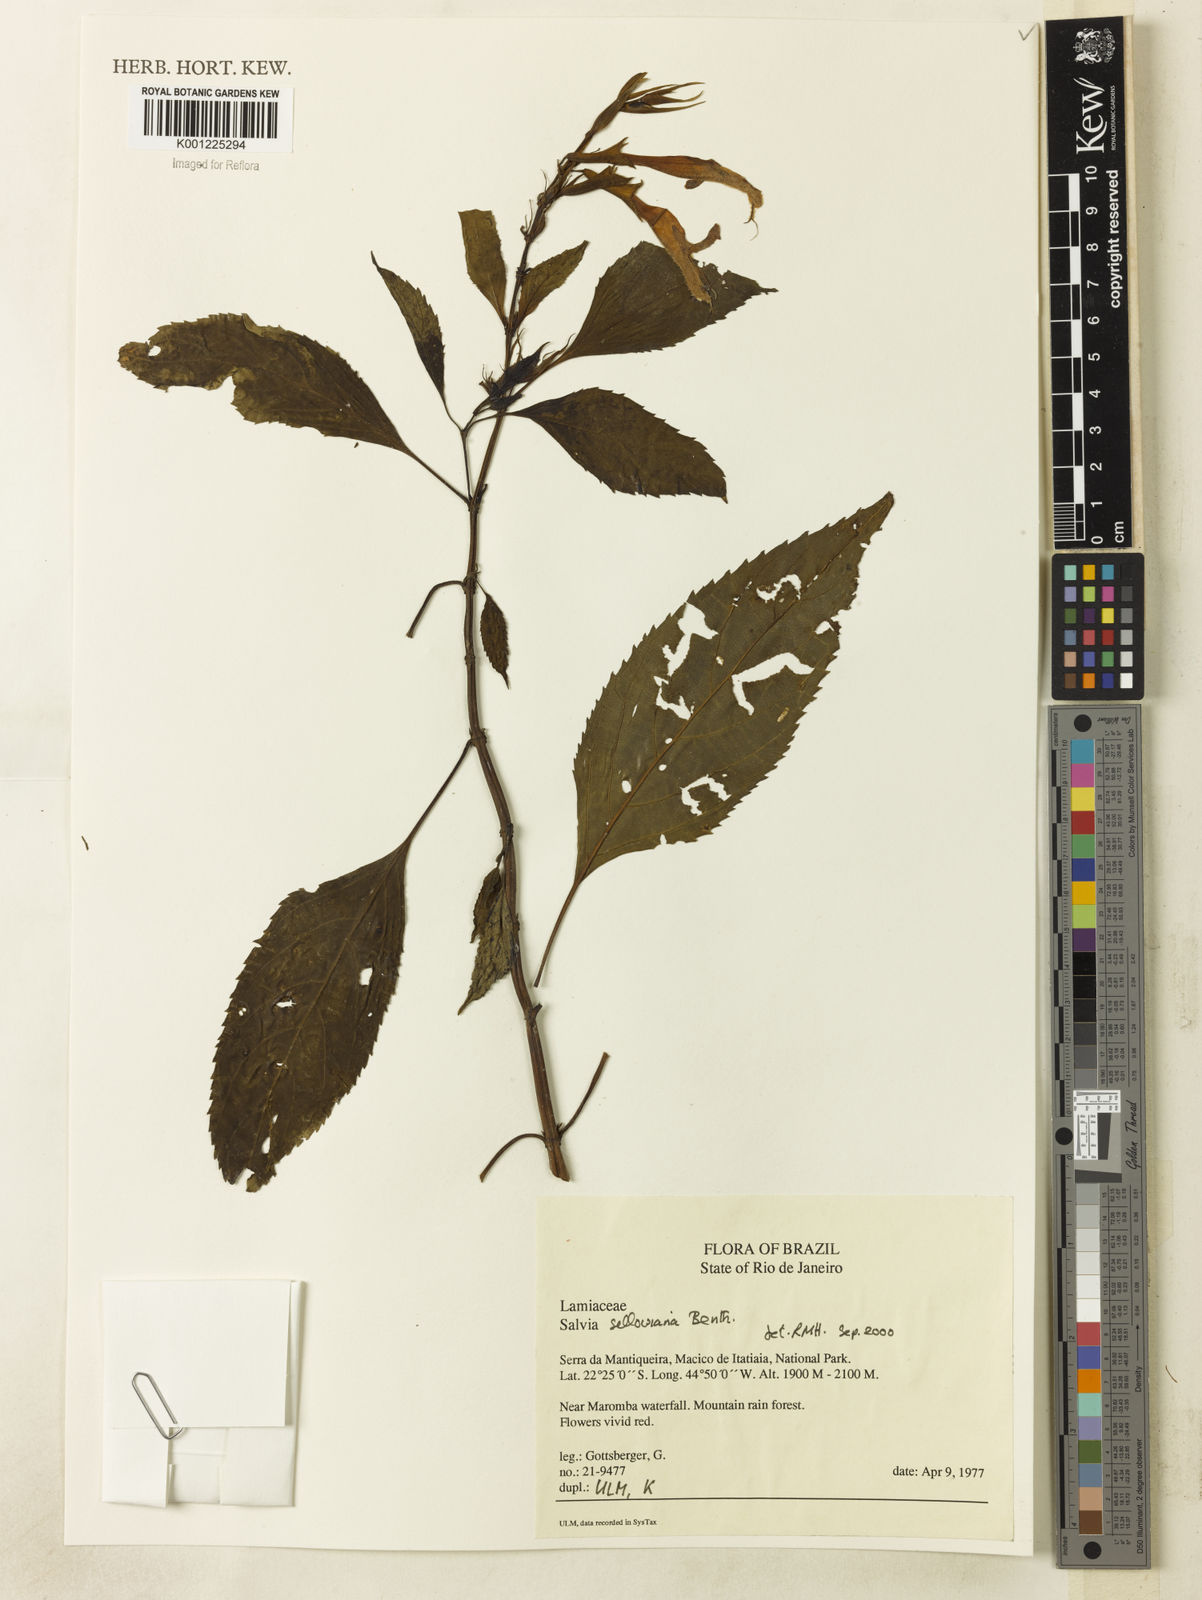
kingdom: Plantae
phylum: Tracheophyta
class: Magnoliopsida
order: Lamiales
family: Lamiaceae
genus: Salvia
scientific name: Salvia sellowiana
